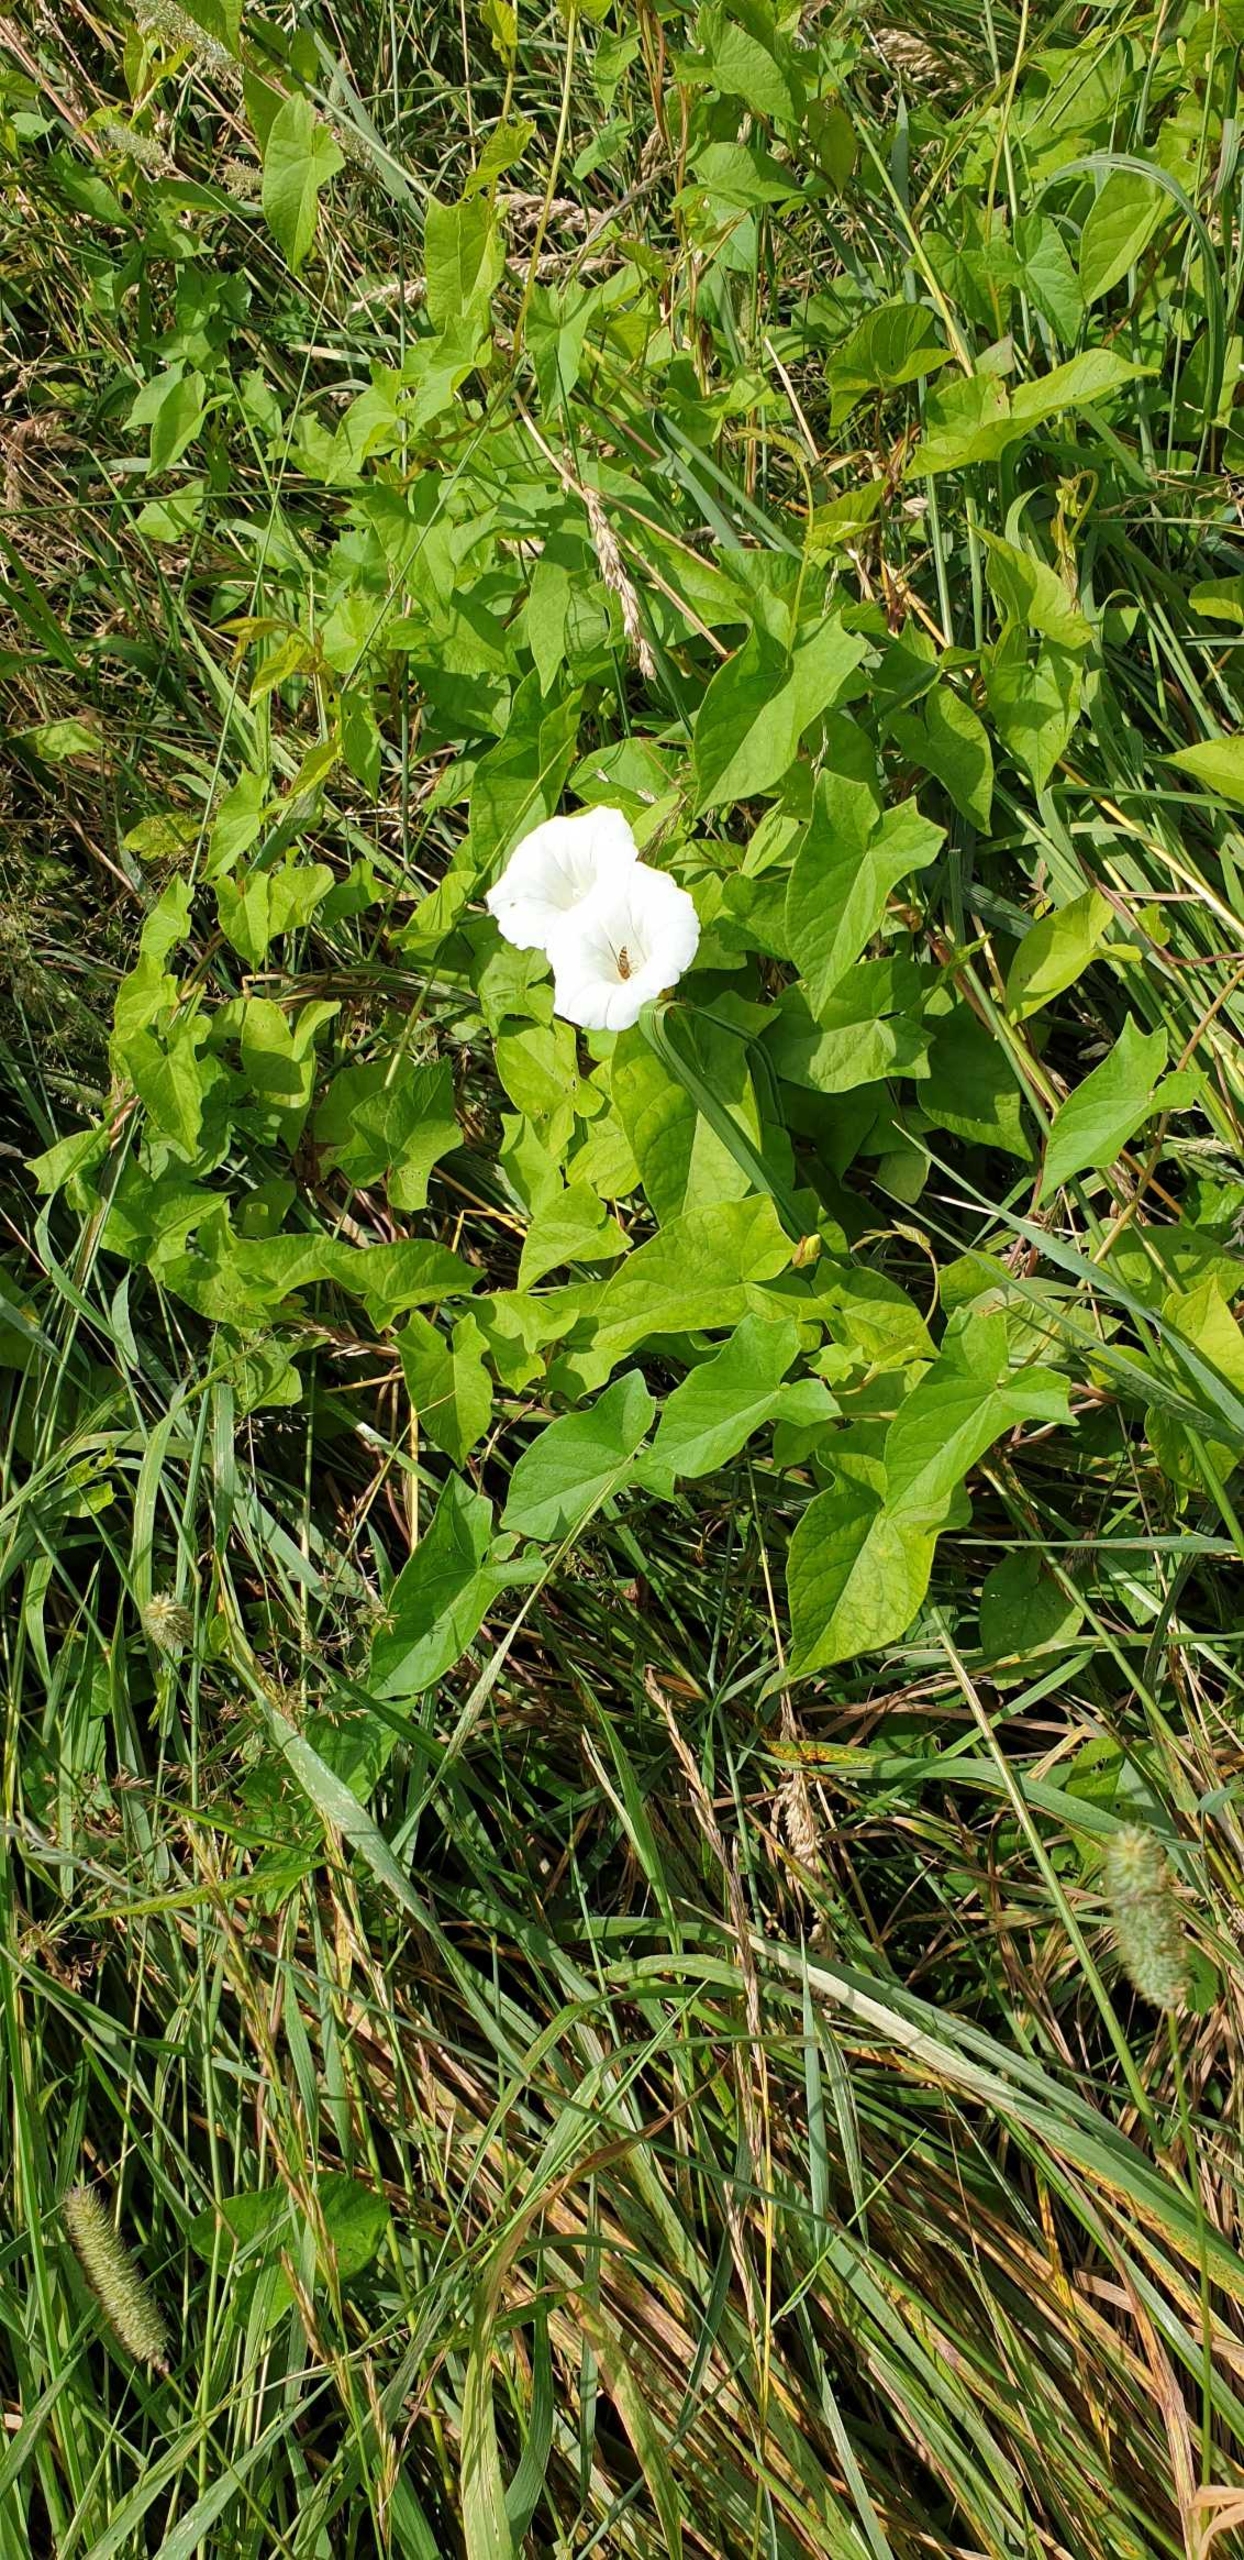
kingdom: Plantae
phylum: Tracheophyta
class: Magnoliopsida
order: Solanales
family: Convolvulaceae
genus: Calystegia
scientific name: Calystegia sepium
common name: Gærde-snerle
